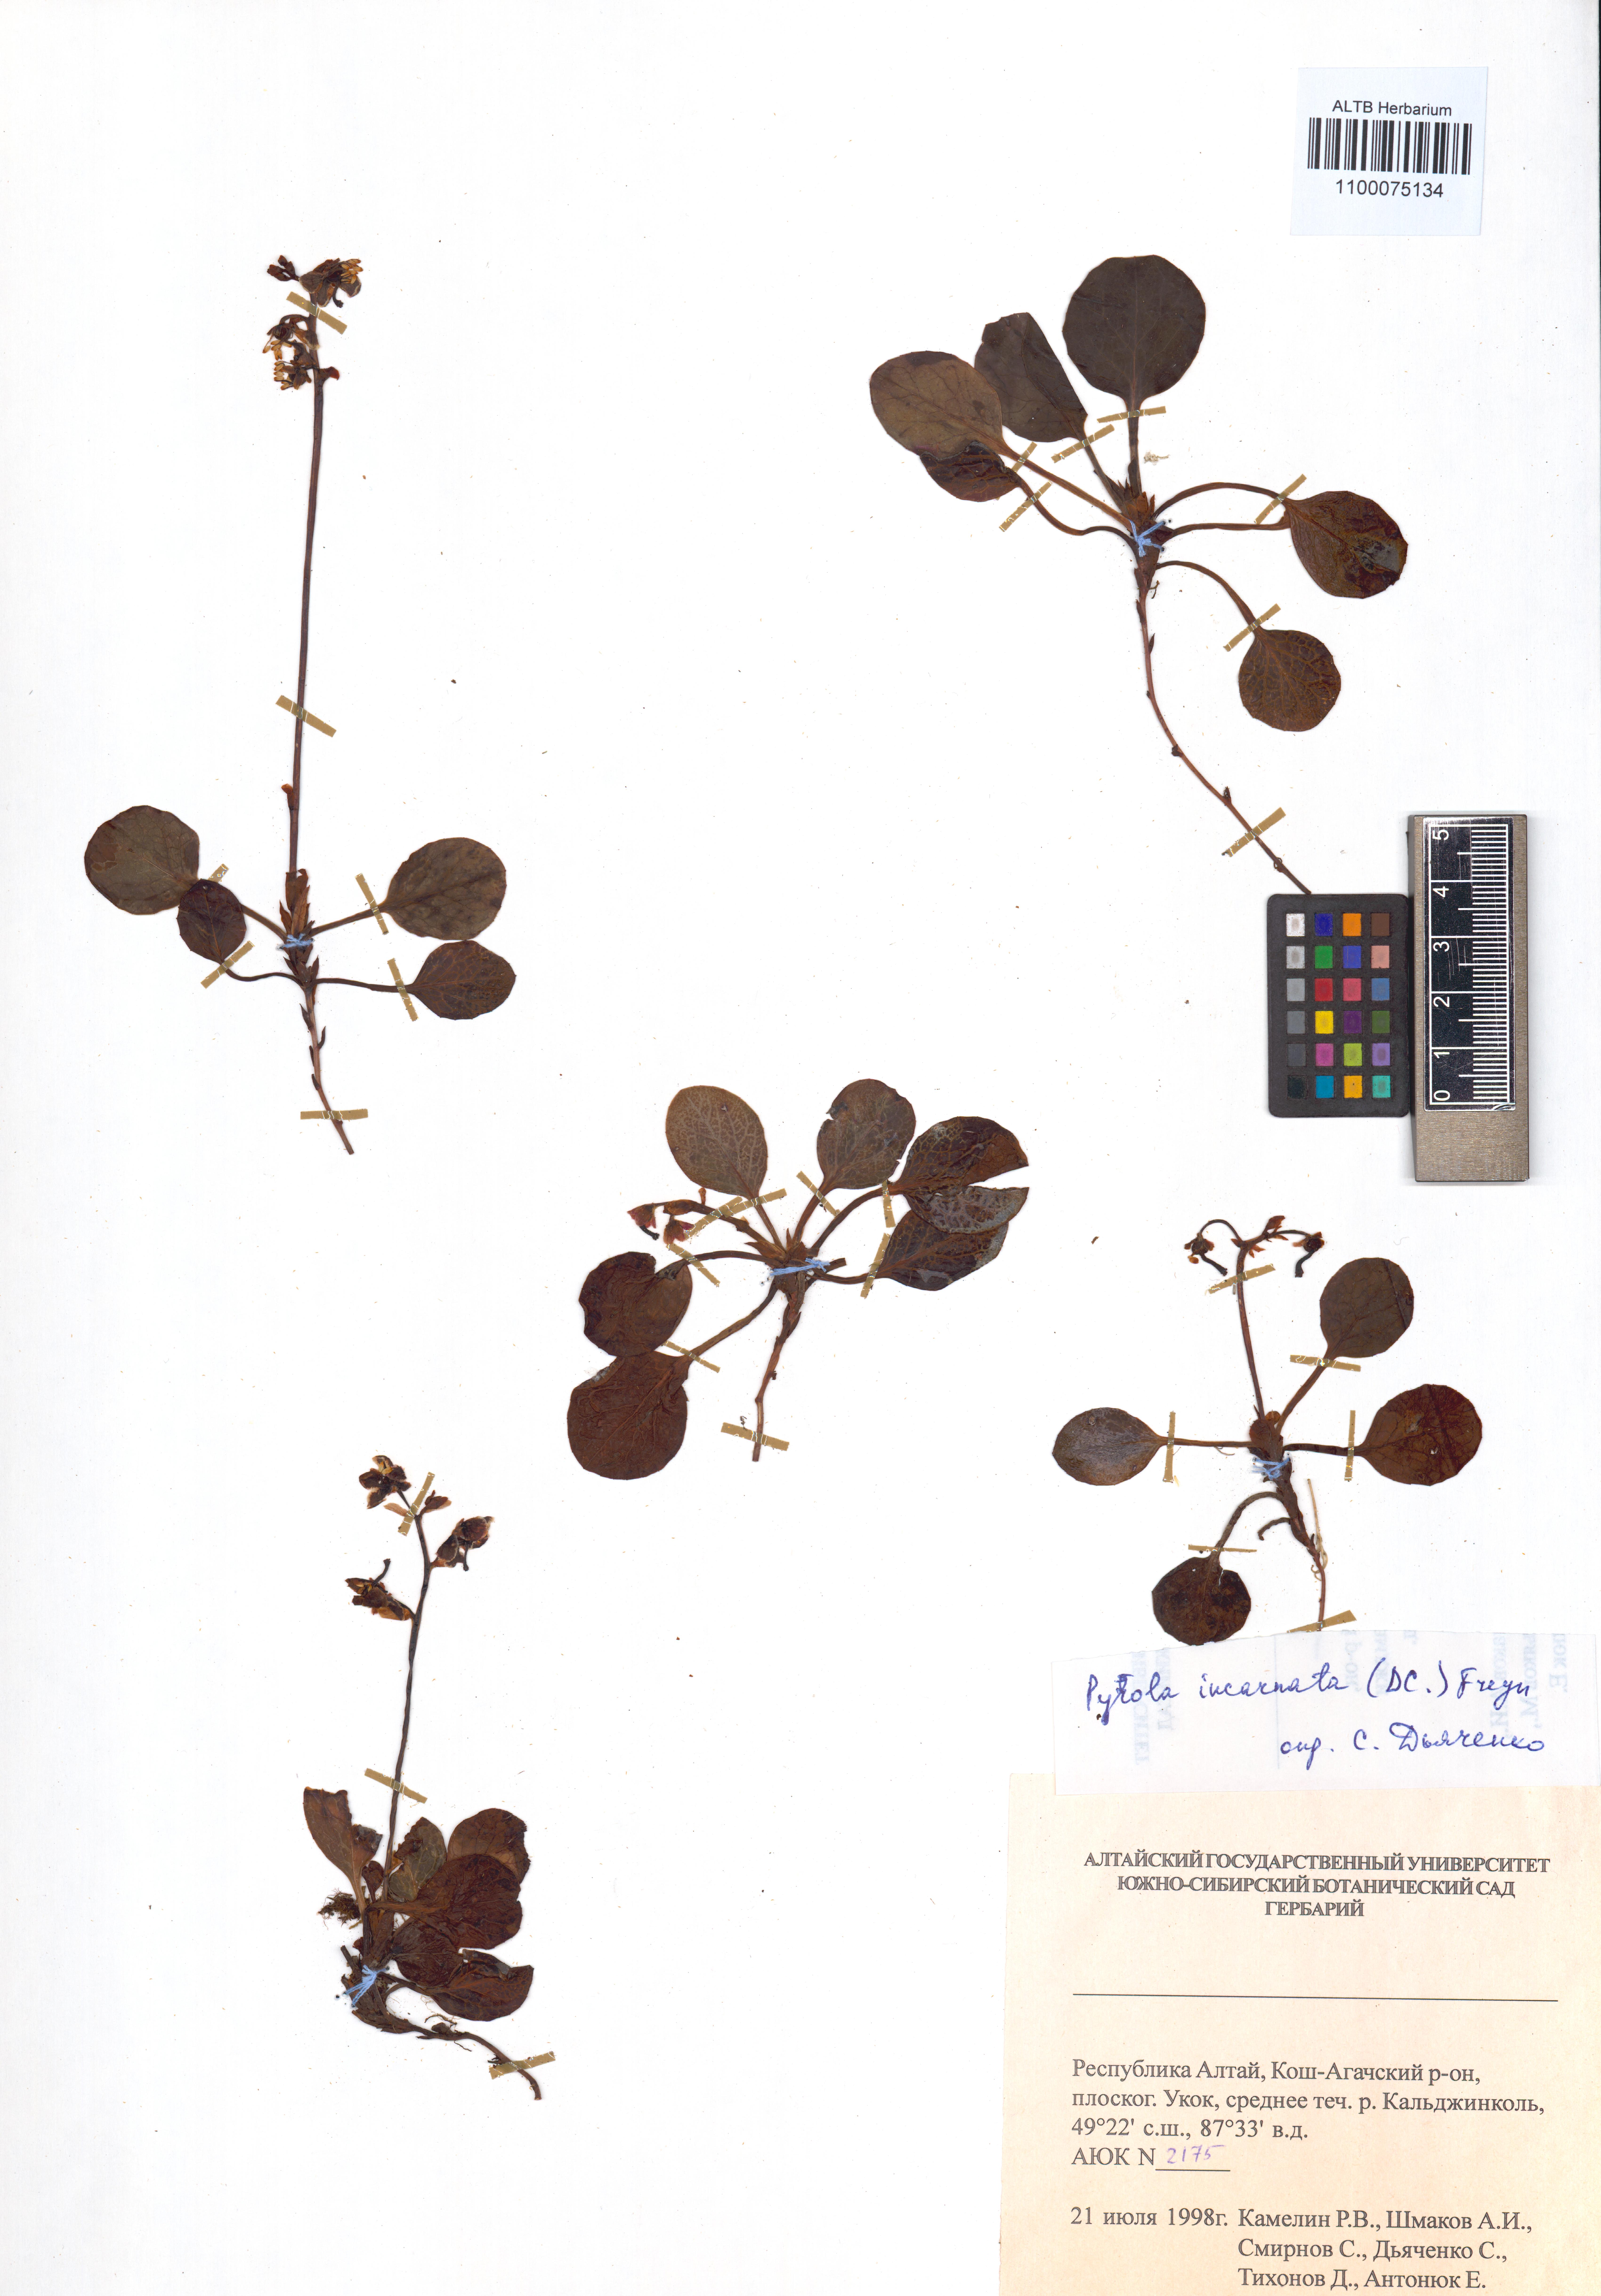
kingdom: Plantae
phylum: Tracheophyta
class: Magnoliopsida
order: Ericales
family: Ericaceae
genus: Pyrola
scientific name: Pyrola asarifolia
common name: Bog wintergreen
